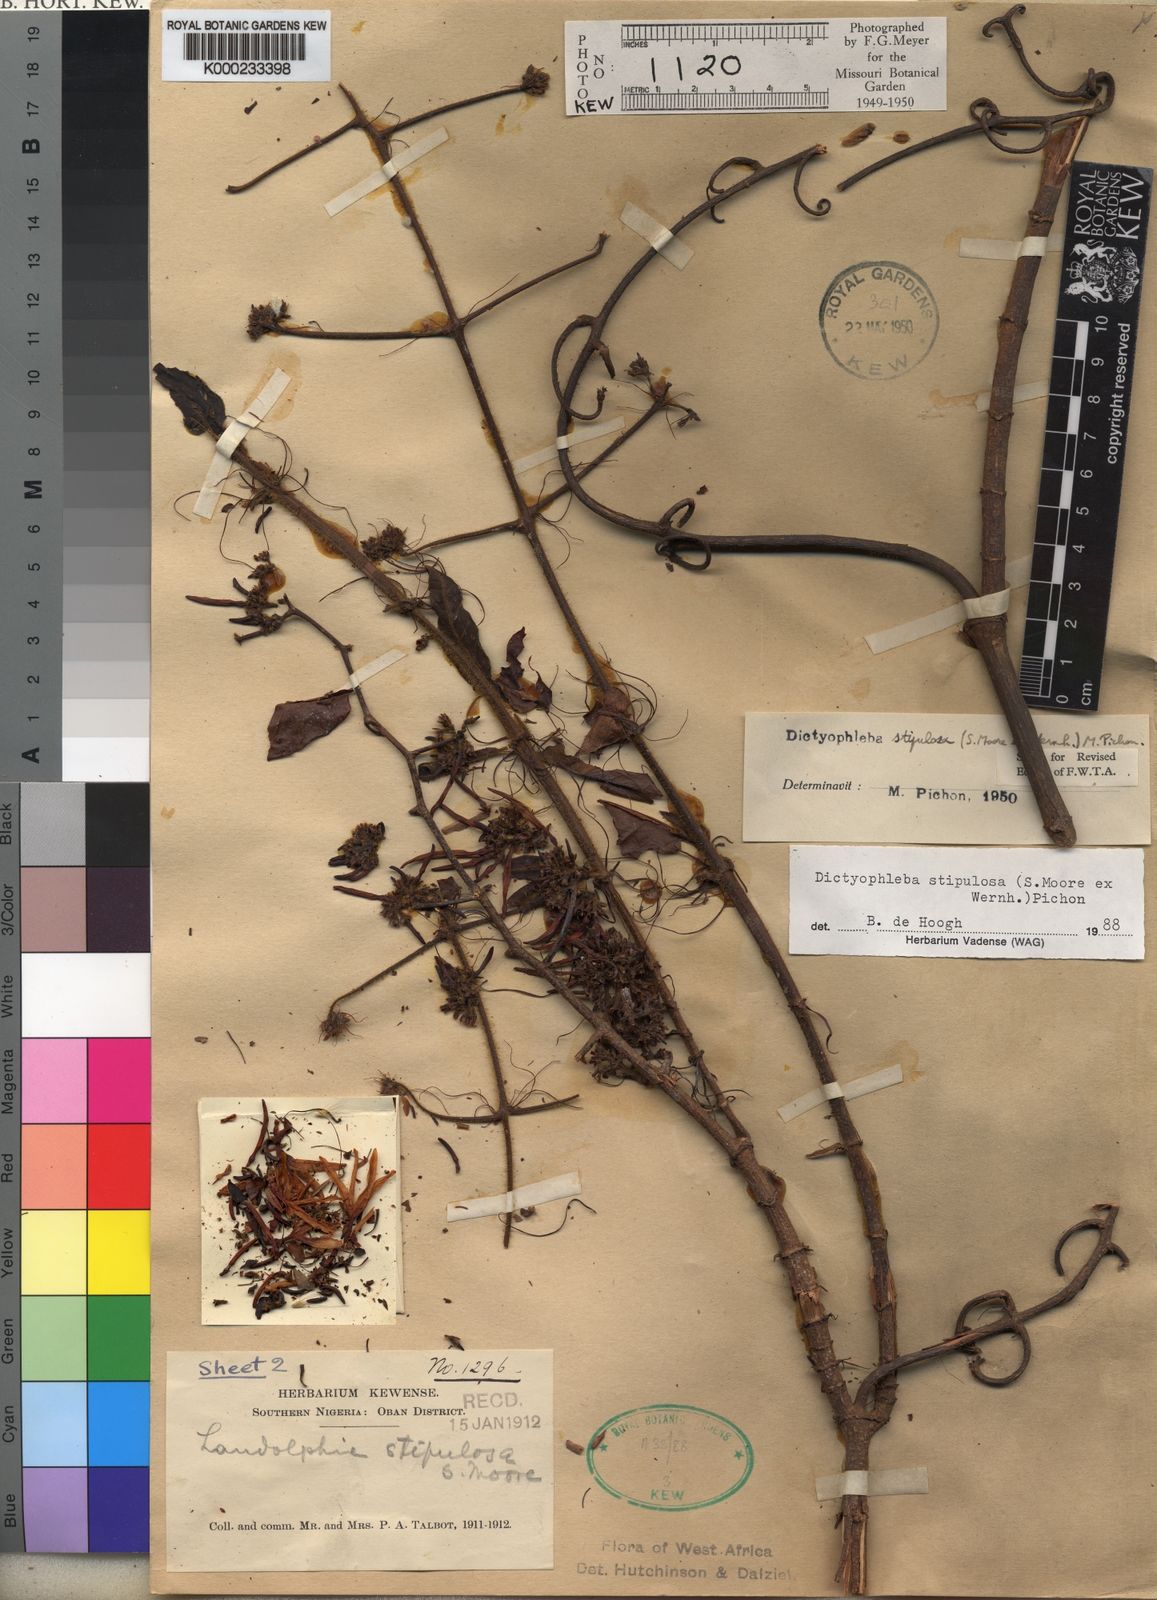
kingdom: Plantae
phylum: Tracheophyta
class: Magnoliopsida
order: Gentianales
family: Apocynaceae
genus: Dictyophleba
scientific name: Dictyophleba stipulosa
